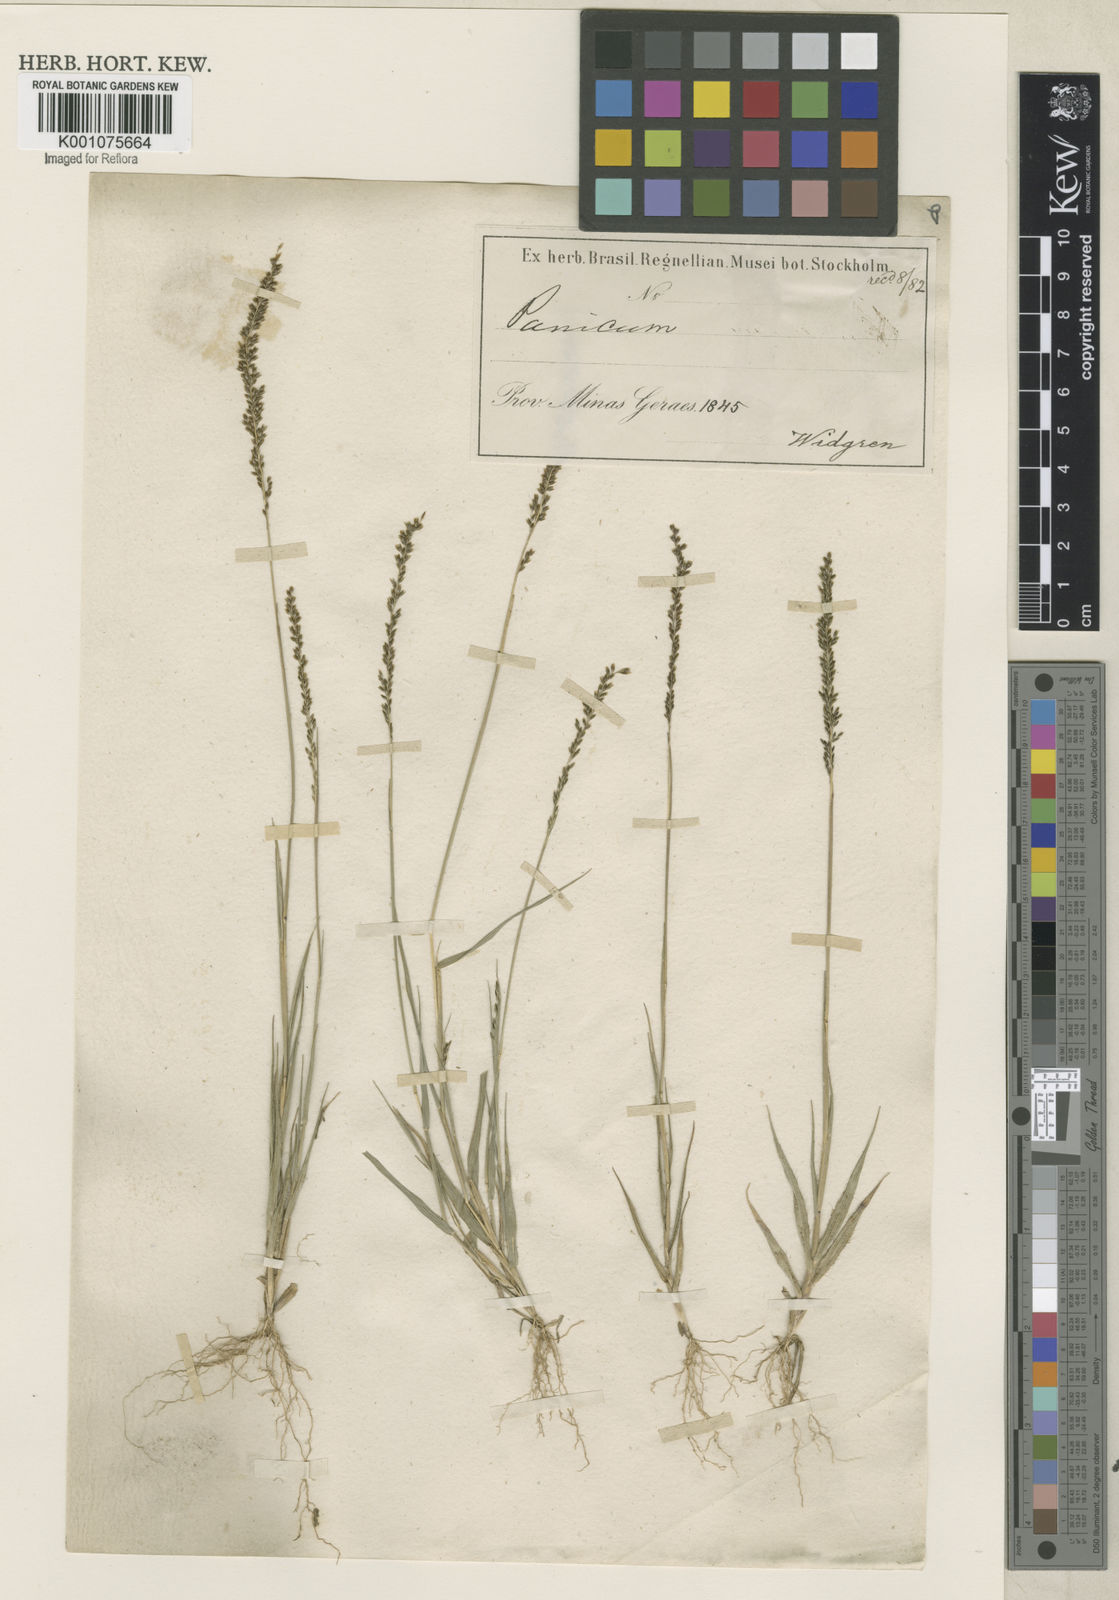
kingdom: Plantae
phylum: Tracheophyta
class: Liliopsida
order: Poales
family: Poaceae
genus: Sporobolus
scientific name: Sporobolus pilifer
